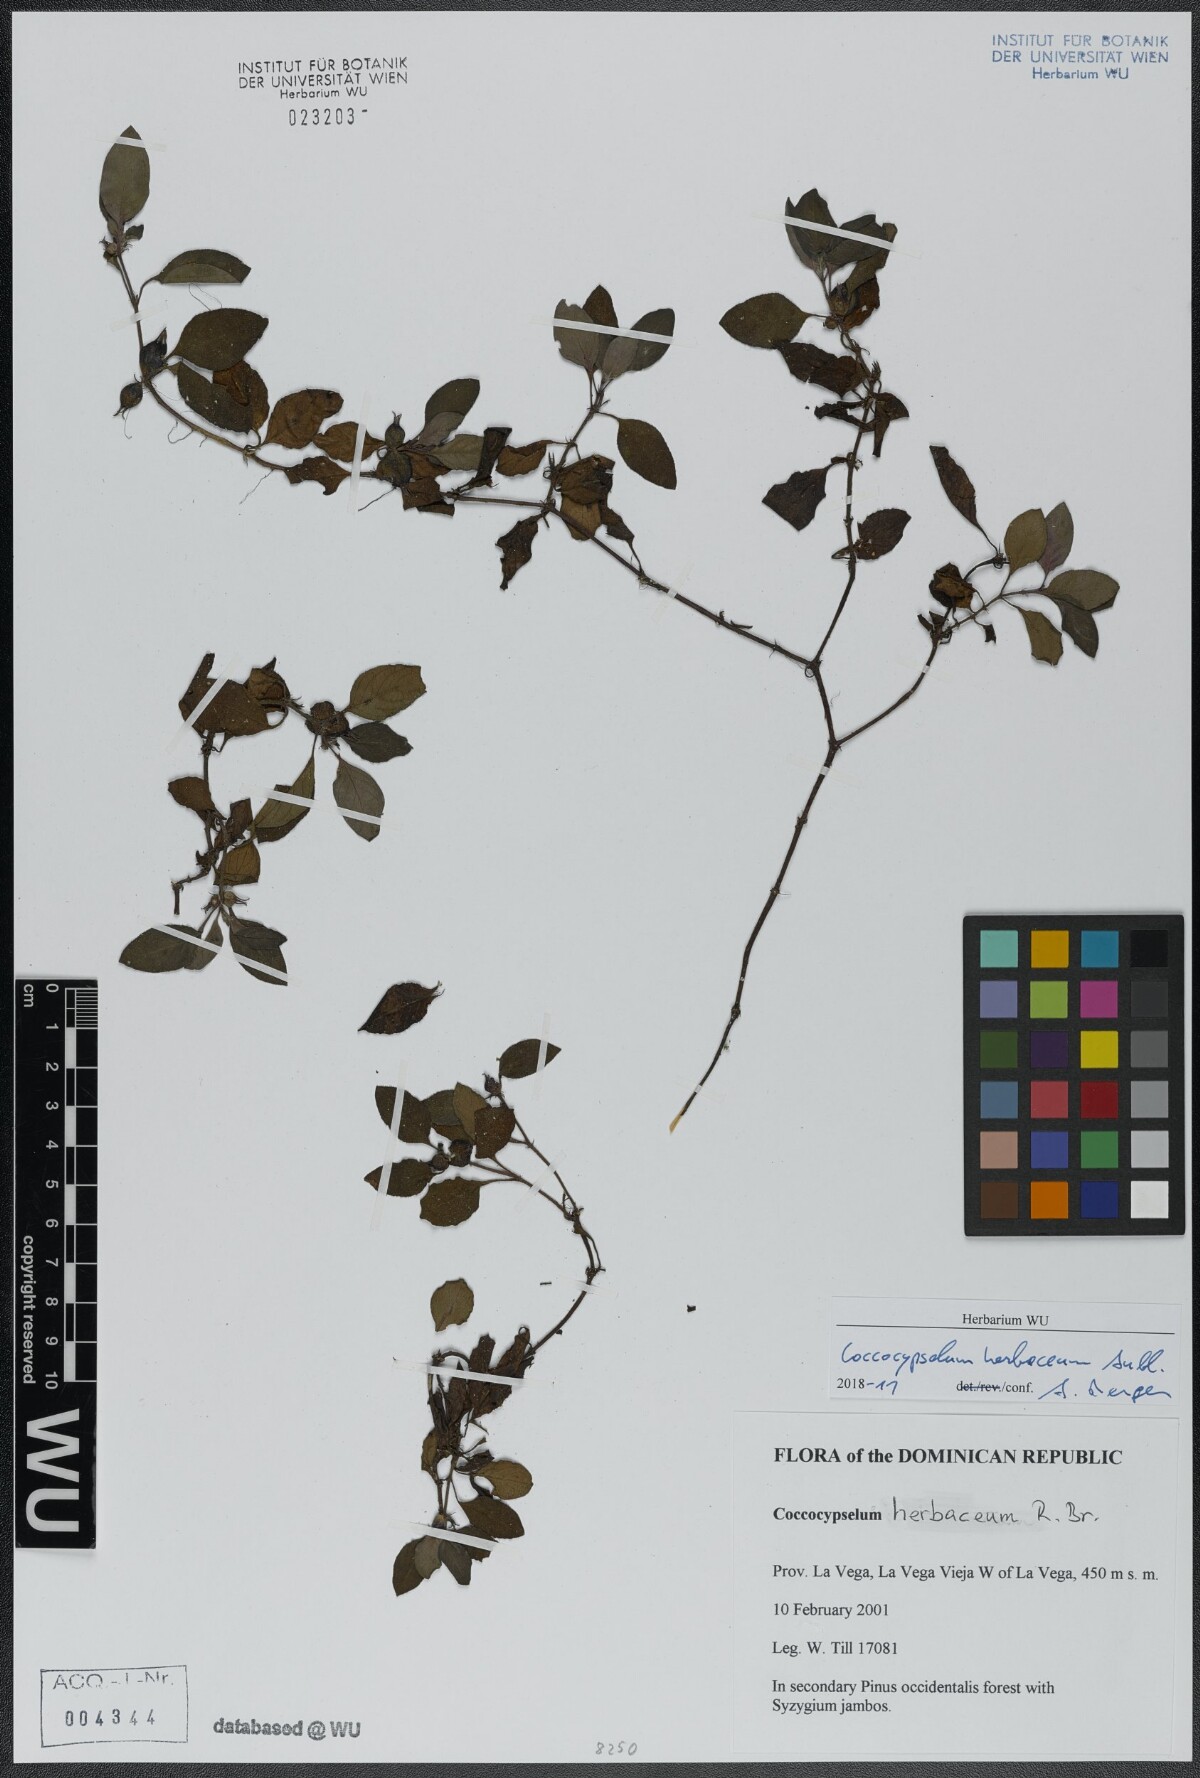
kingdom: Plantae
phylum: Tracheophyta
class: Magnoliopsida
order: Gentianales
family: Rubiaceae
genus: Coccocypselum
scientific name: Coccocypselum herbaceum
